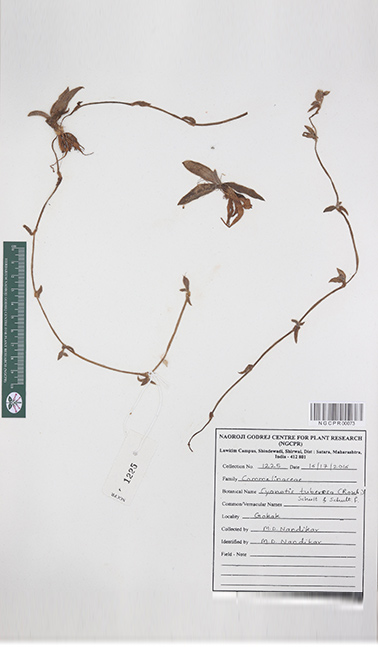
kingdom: Plantae
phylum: Tracheophyta
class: Liliopsida
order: Commelinales
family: Commelinaceae
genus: Cyanotis
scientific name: Cyanotis tuberosa
